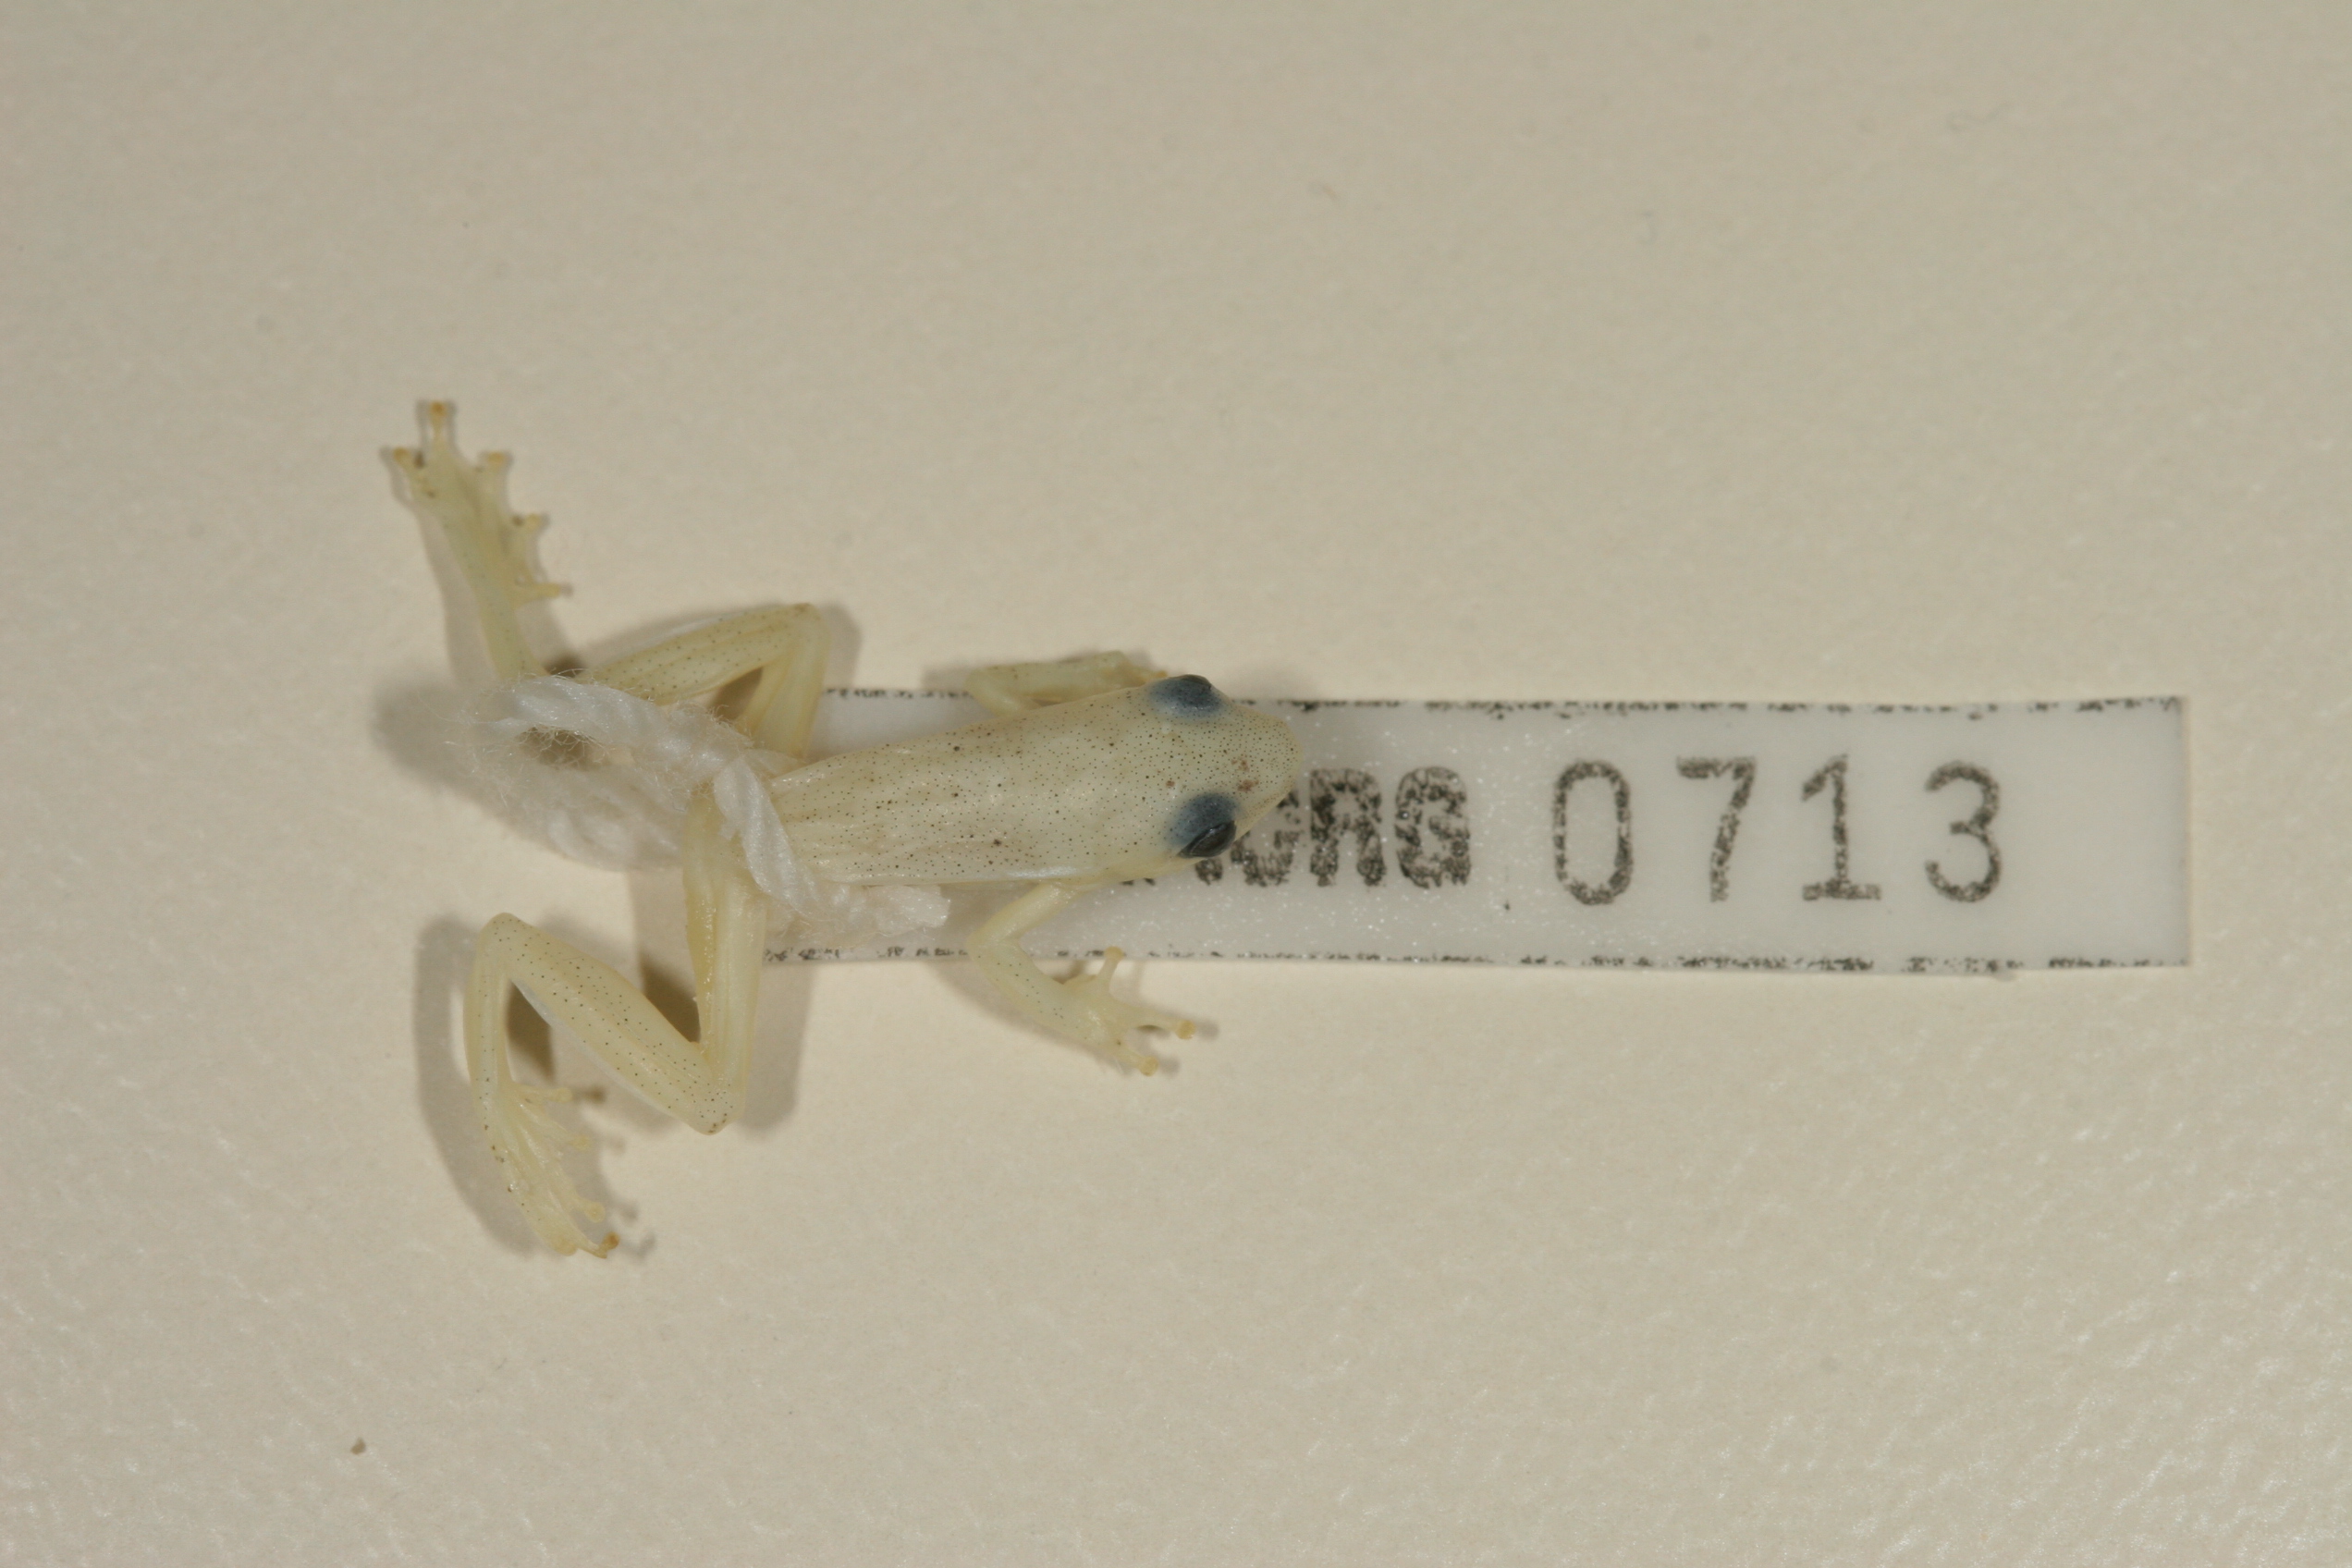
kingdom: Animalia
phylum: Chordata
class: Amphibia
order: Anura
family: Hyperoliidae
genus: Hyperolius
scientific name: Hyperolius nasutus
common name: Sharp-and-blunt-snouted sedge frog
